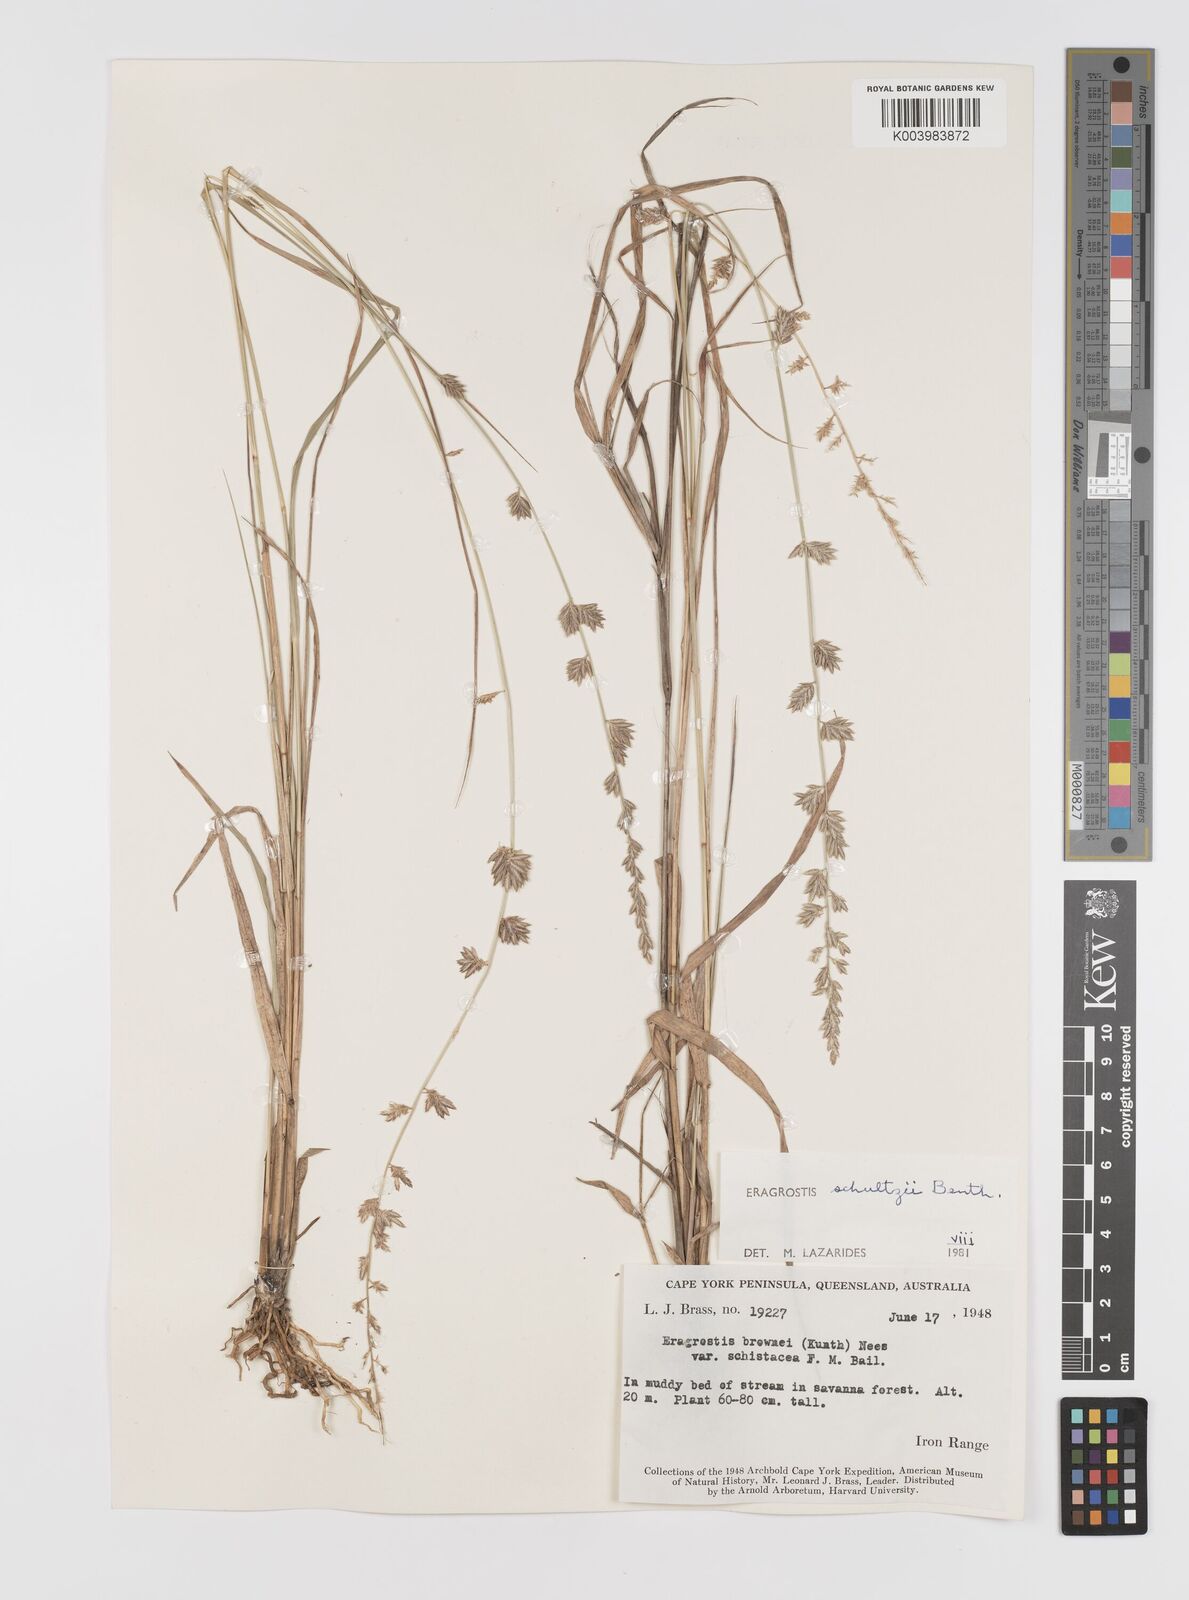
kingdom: Plantae
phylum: Tracheophyta
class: Liliopsida
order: Poales
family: Poaceae
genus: Eragrostis
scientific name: Eragrostis schultzii
